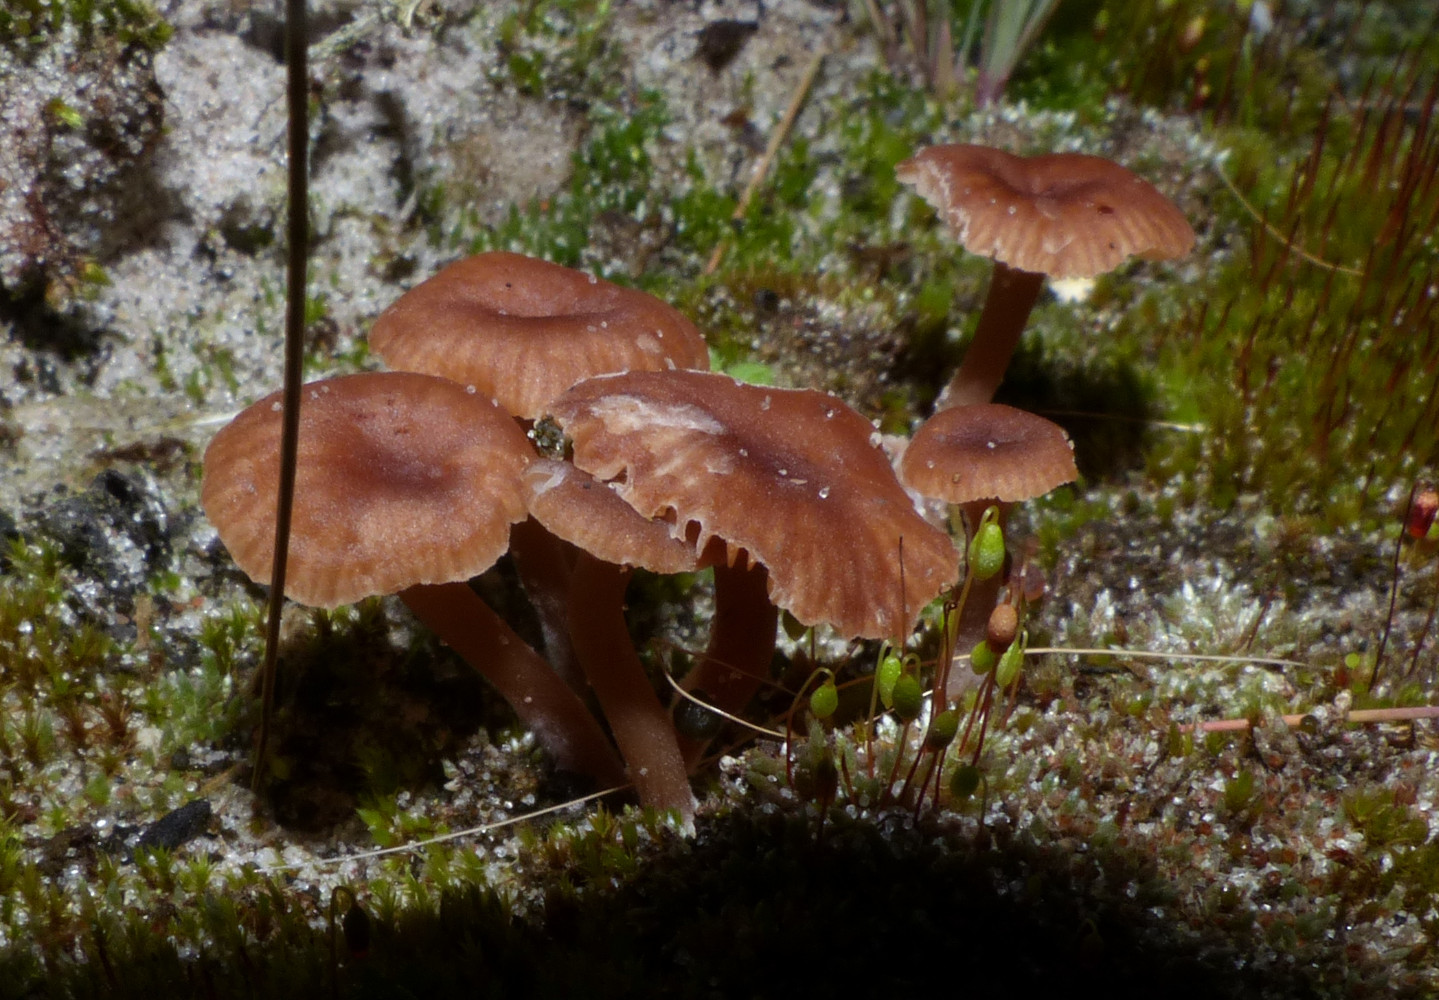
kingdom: Fungi
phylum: Basidiomycota
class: Agaricomycetes
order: Agaricales
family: Tricholomataceae
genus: Omphalina
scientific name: Omphalina pyxidata
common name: rødbrun navlehat
